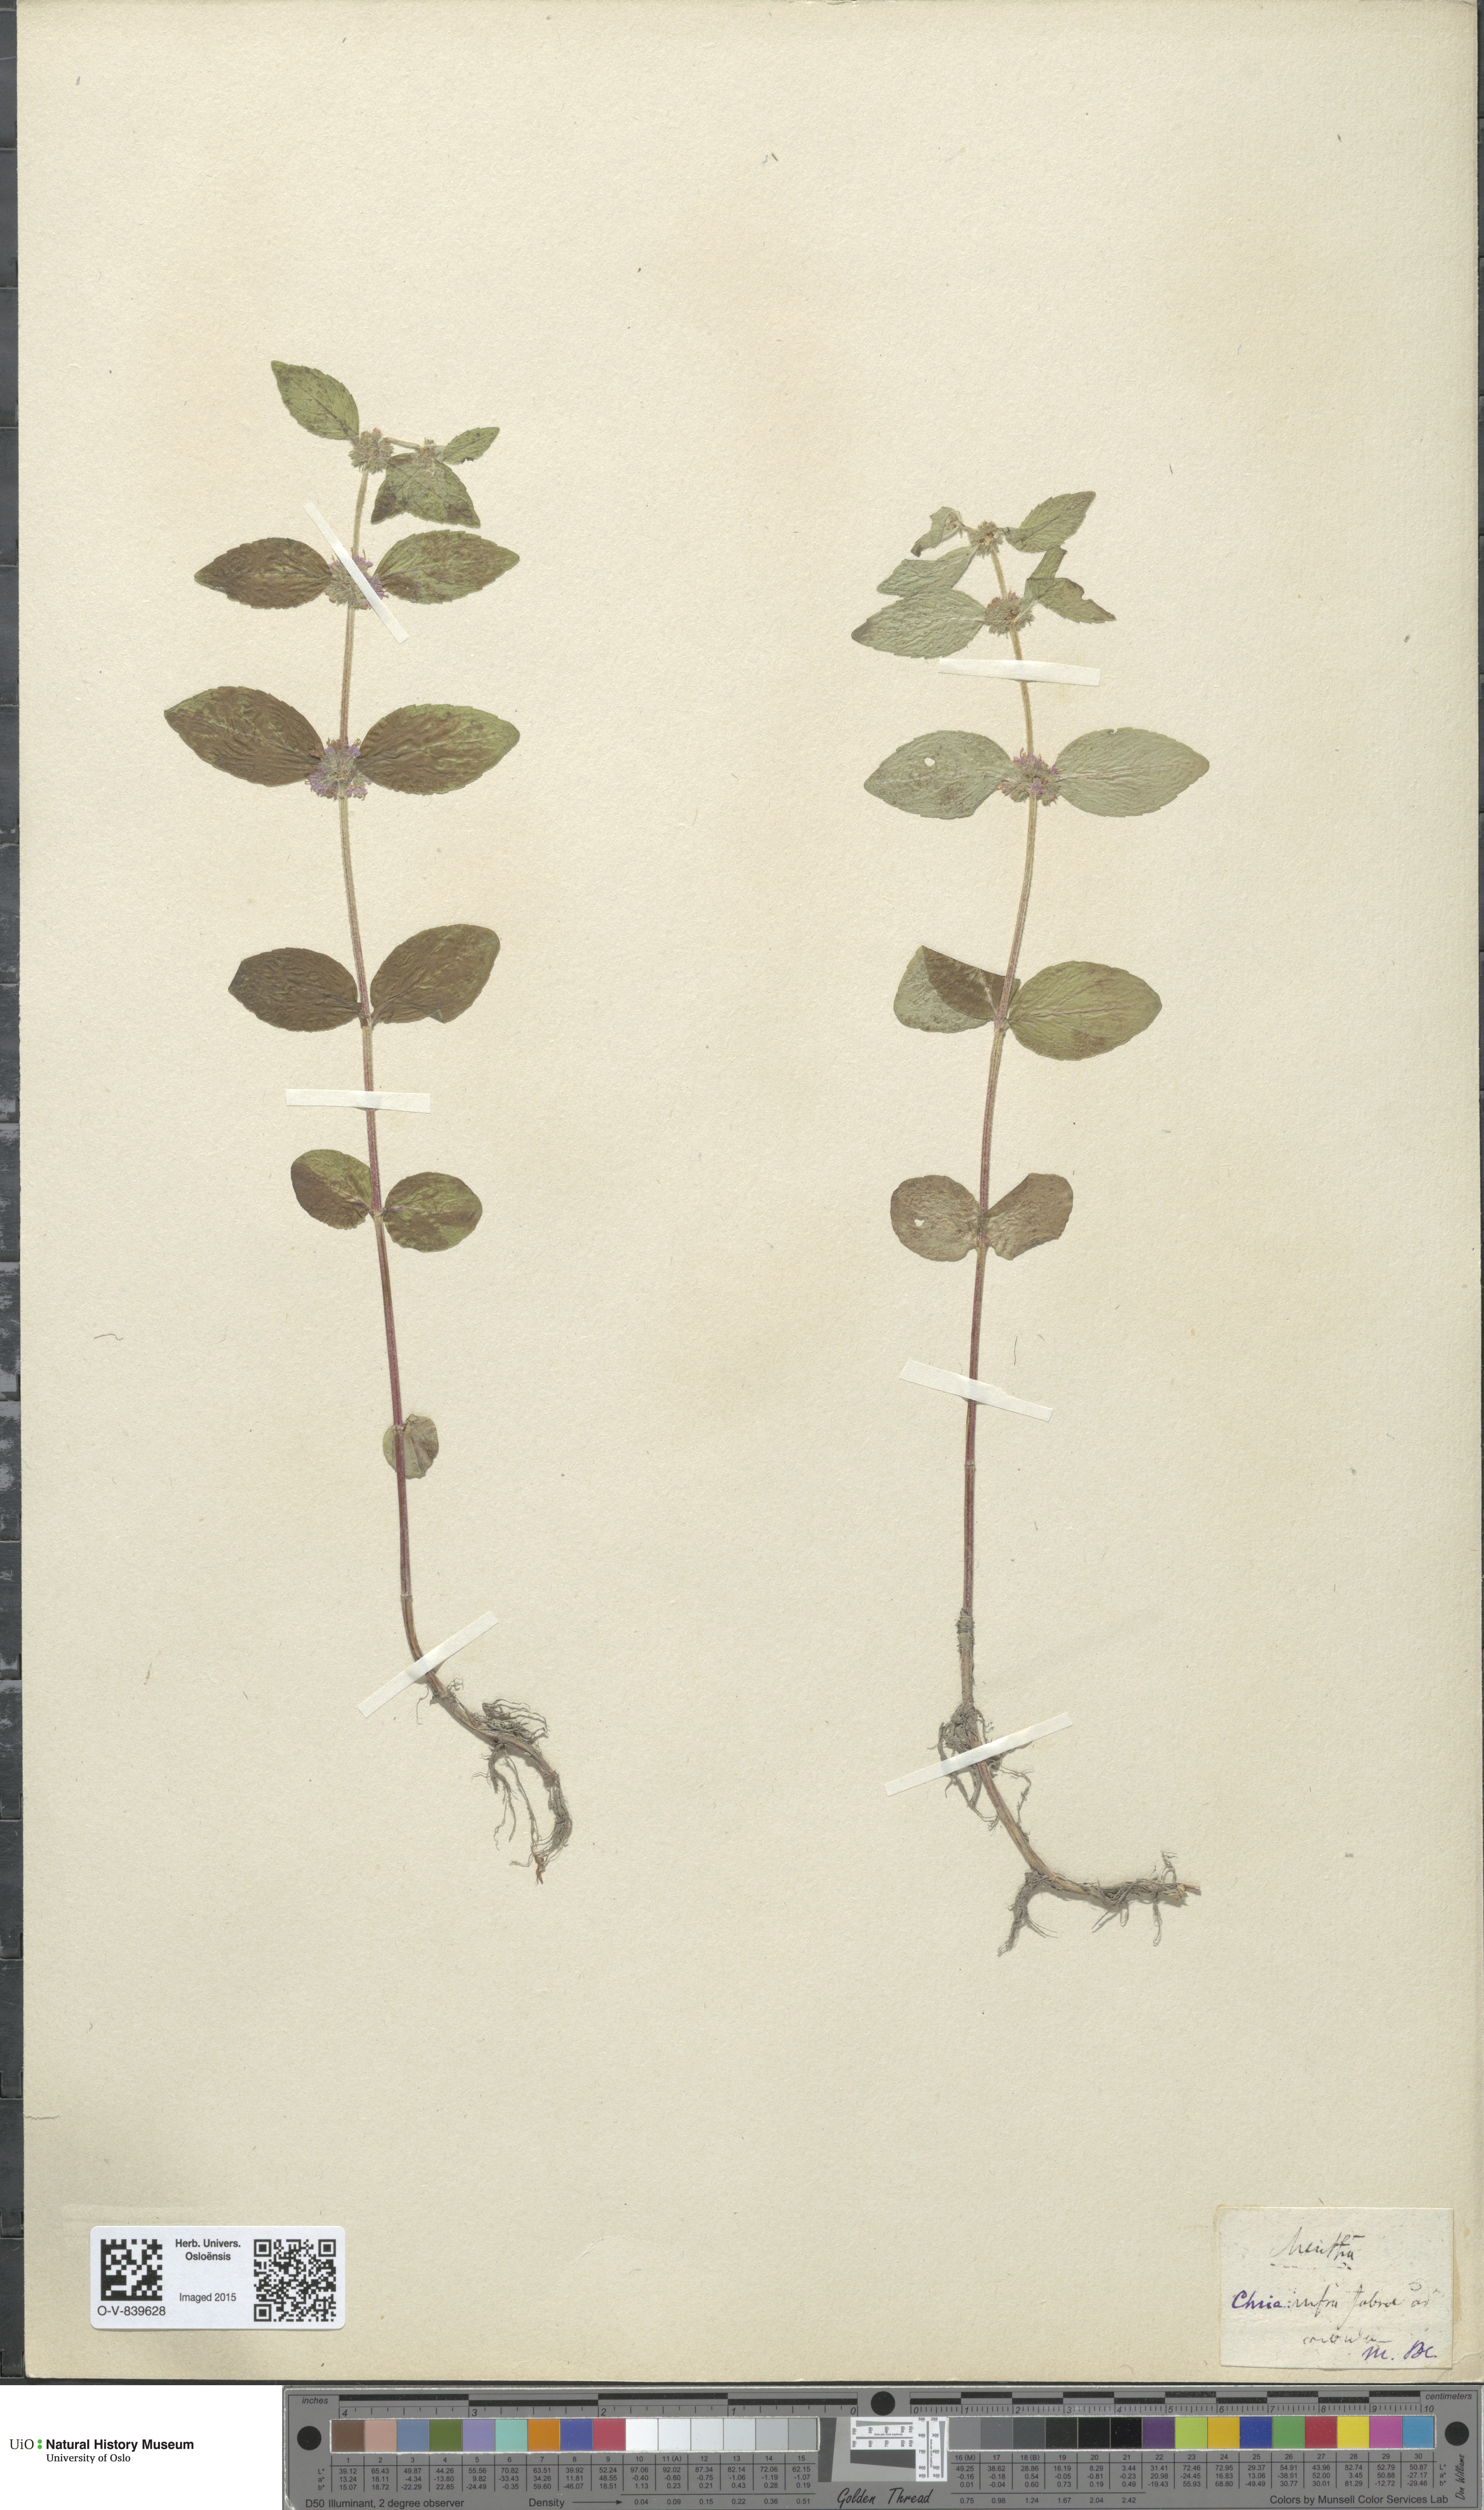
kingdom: Plantae
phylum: Tracheophyta
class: Magnoliopsida
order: Lamiales
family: Lamiaceae
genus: Mentha
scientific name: Mentha
